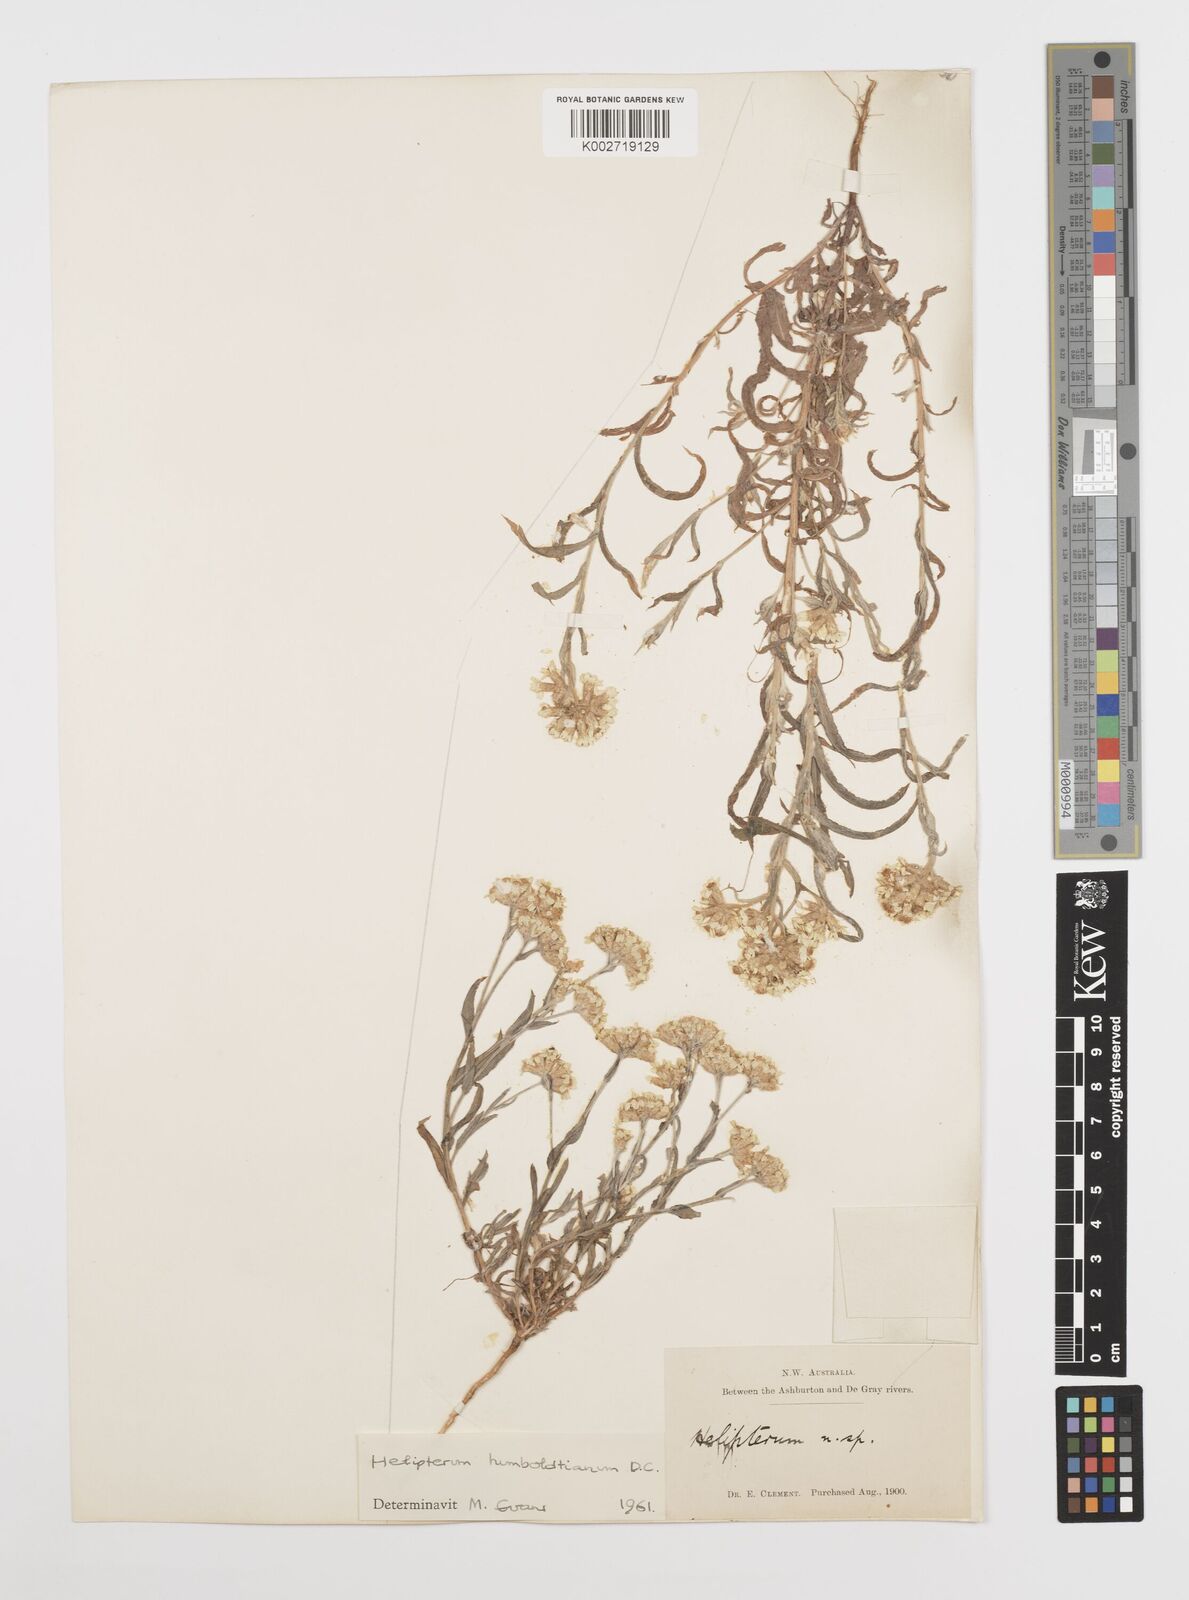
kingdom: Plantae
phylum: Tracheophyta
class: Magnoliopsida
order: Asterales
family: Asteraceae
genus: Rhodanthe
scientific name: Rhodanthe humboldtiana
